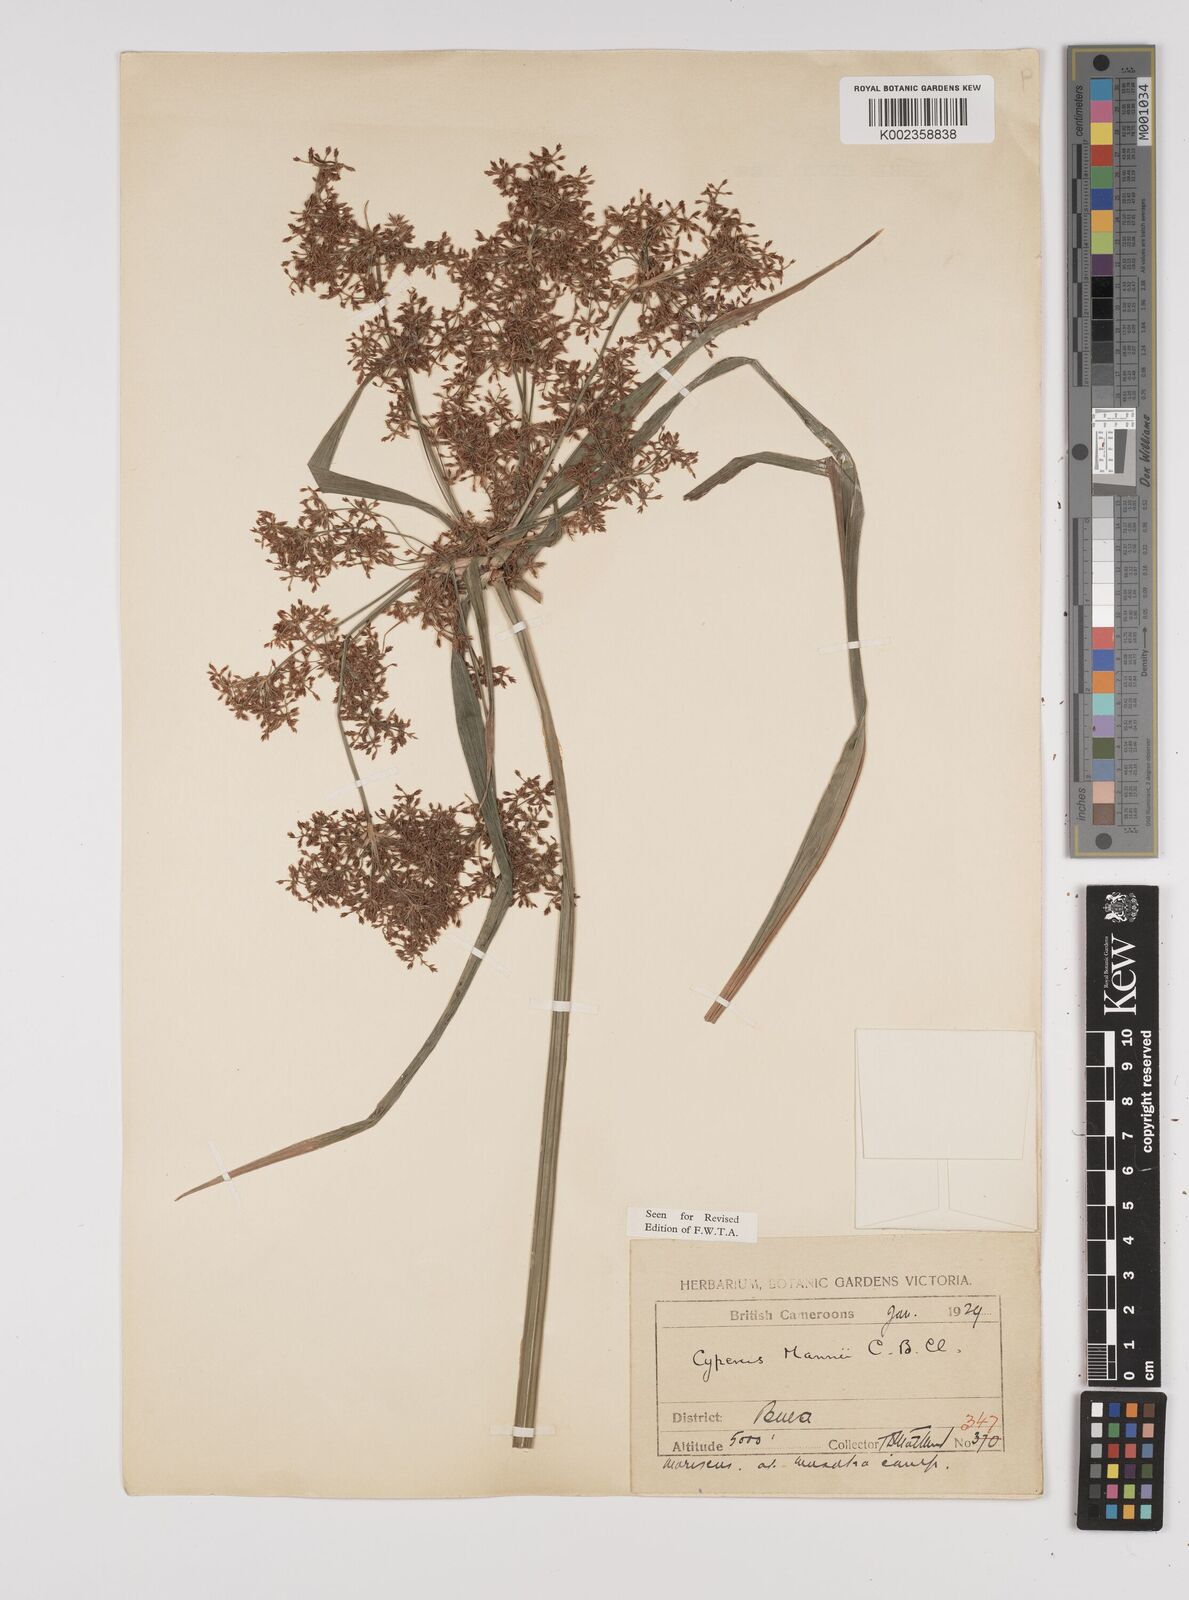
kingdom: Plantae
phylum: Tracheophyta
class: Liliopsida
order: Poales
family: Cyperaceae
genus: Cyperus
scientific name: Cyperus baronii
